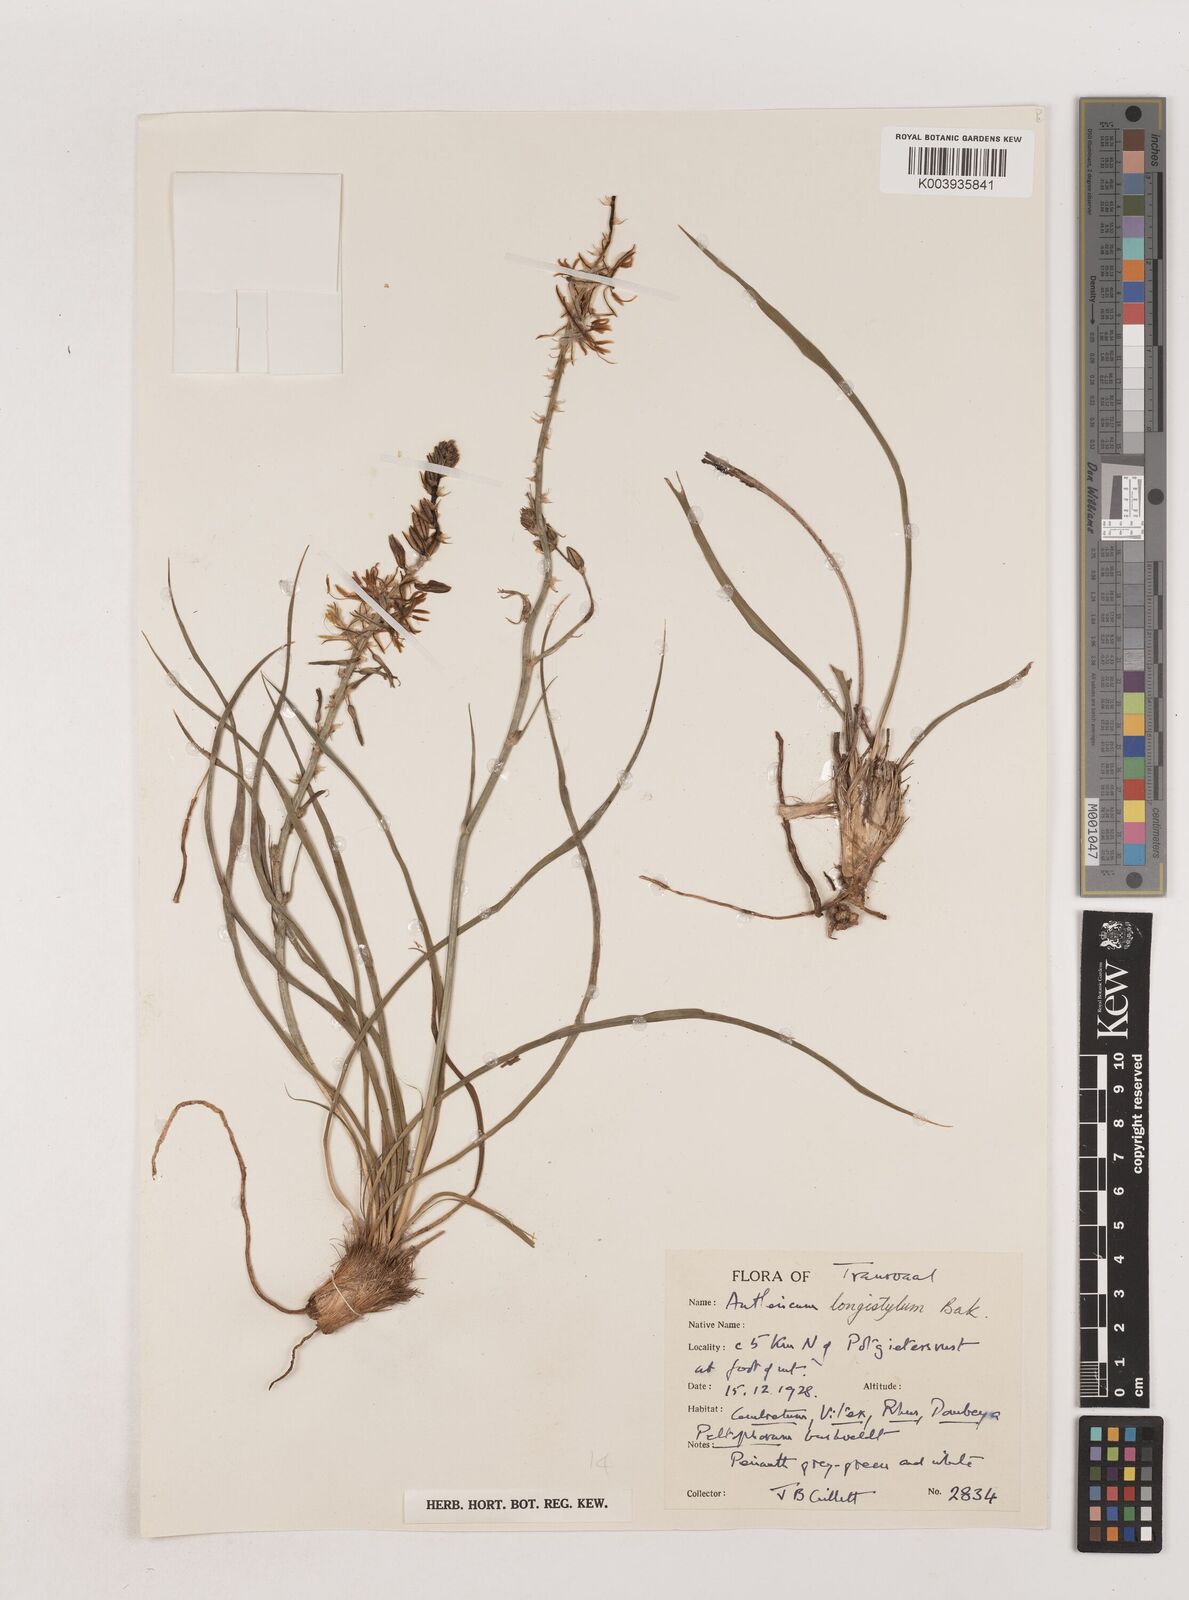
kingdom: Plantae
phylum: Tracheophyta
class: Liliopsida
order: Asparagales
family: Asparagaceae
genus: Chlorophytum
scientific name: Chlorophytum recurvifolium
